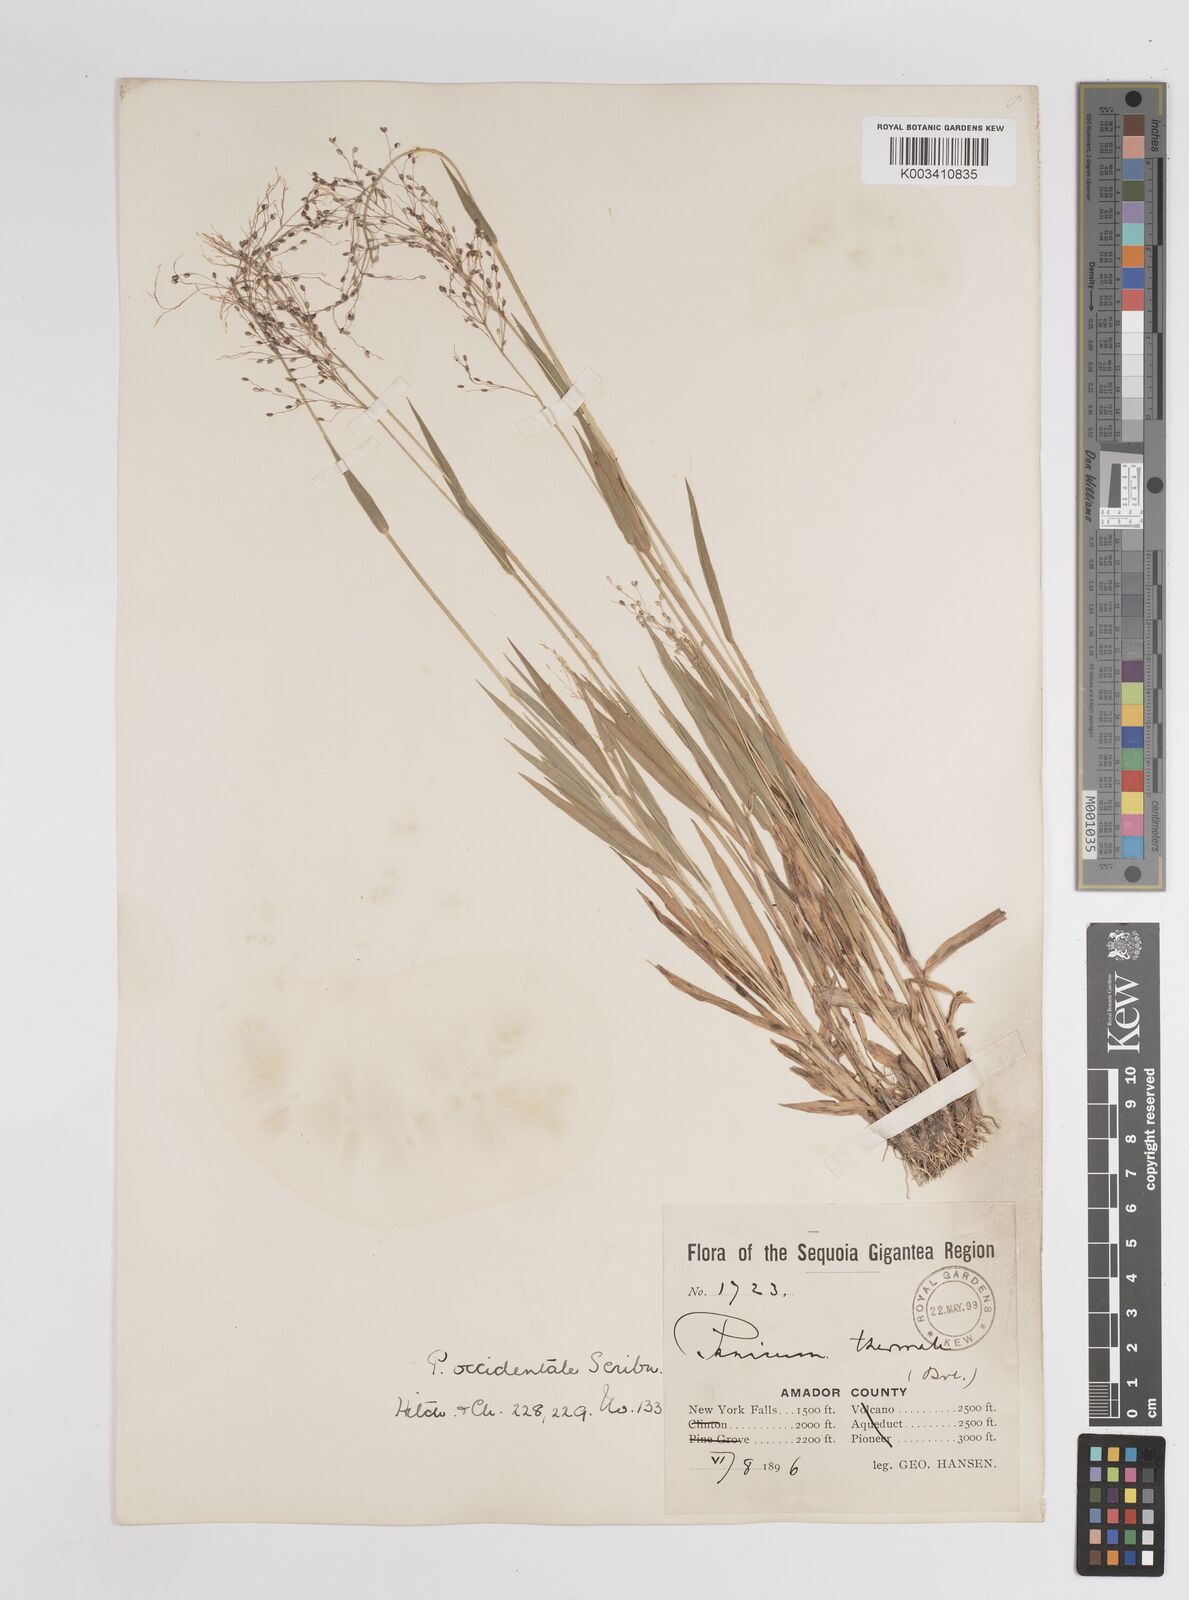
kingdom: Plantae
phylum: Tracheophyta
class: Liliopsida
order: Poales
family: Poaceae
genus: Dichanthelium
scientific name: Dichanthelium implicatum
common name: Slender-stemmed panicgrass
